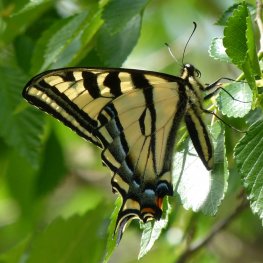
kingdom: Animalia
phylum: Arthropoda
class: Insecta
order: Lepidoptera
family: Papilionidae
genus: Pterourus
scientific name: Pterourus rutulus
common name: Western Tiger Swallowtail
